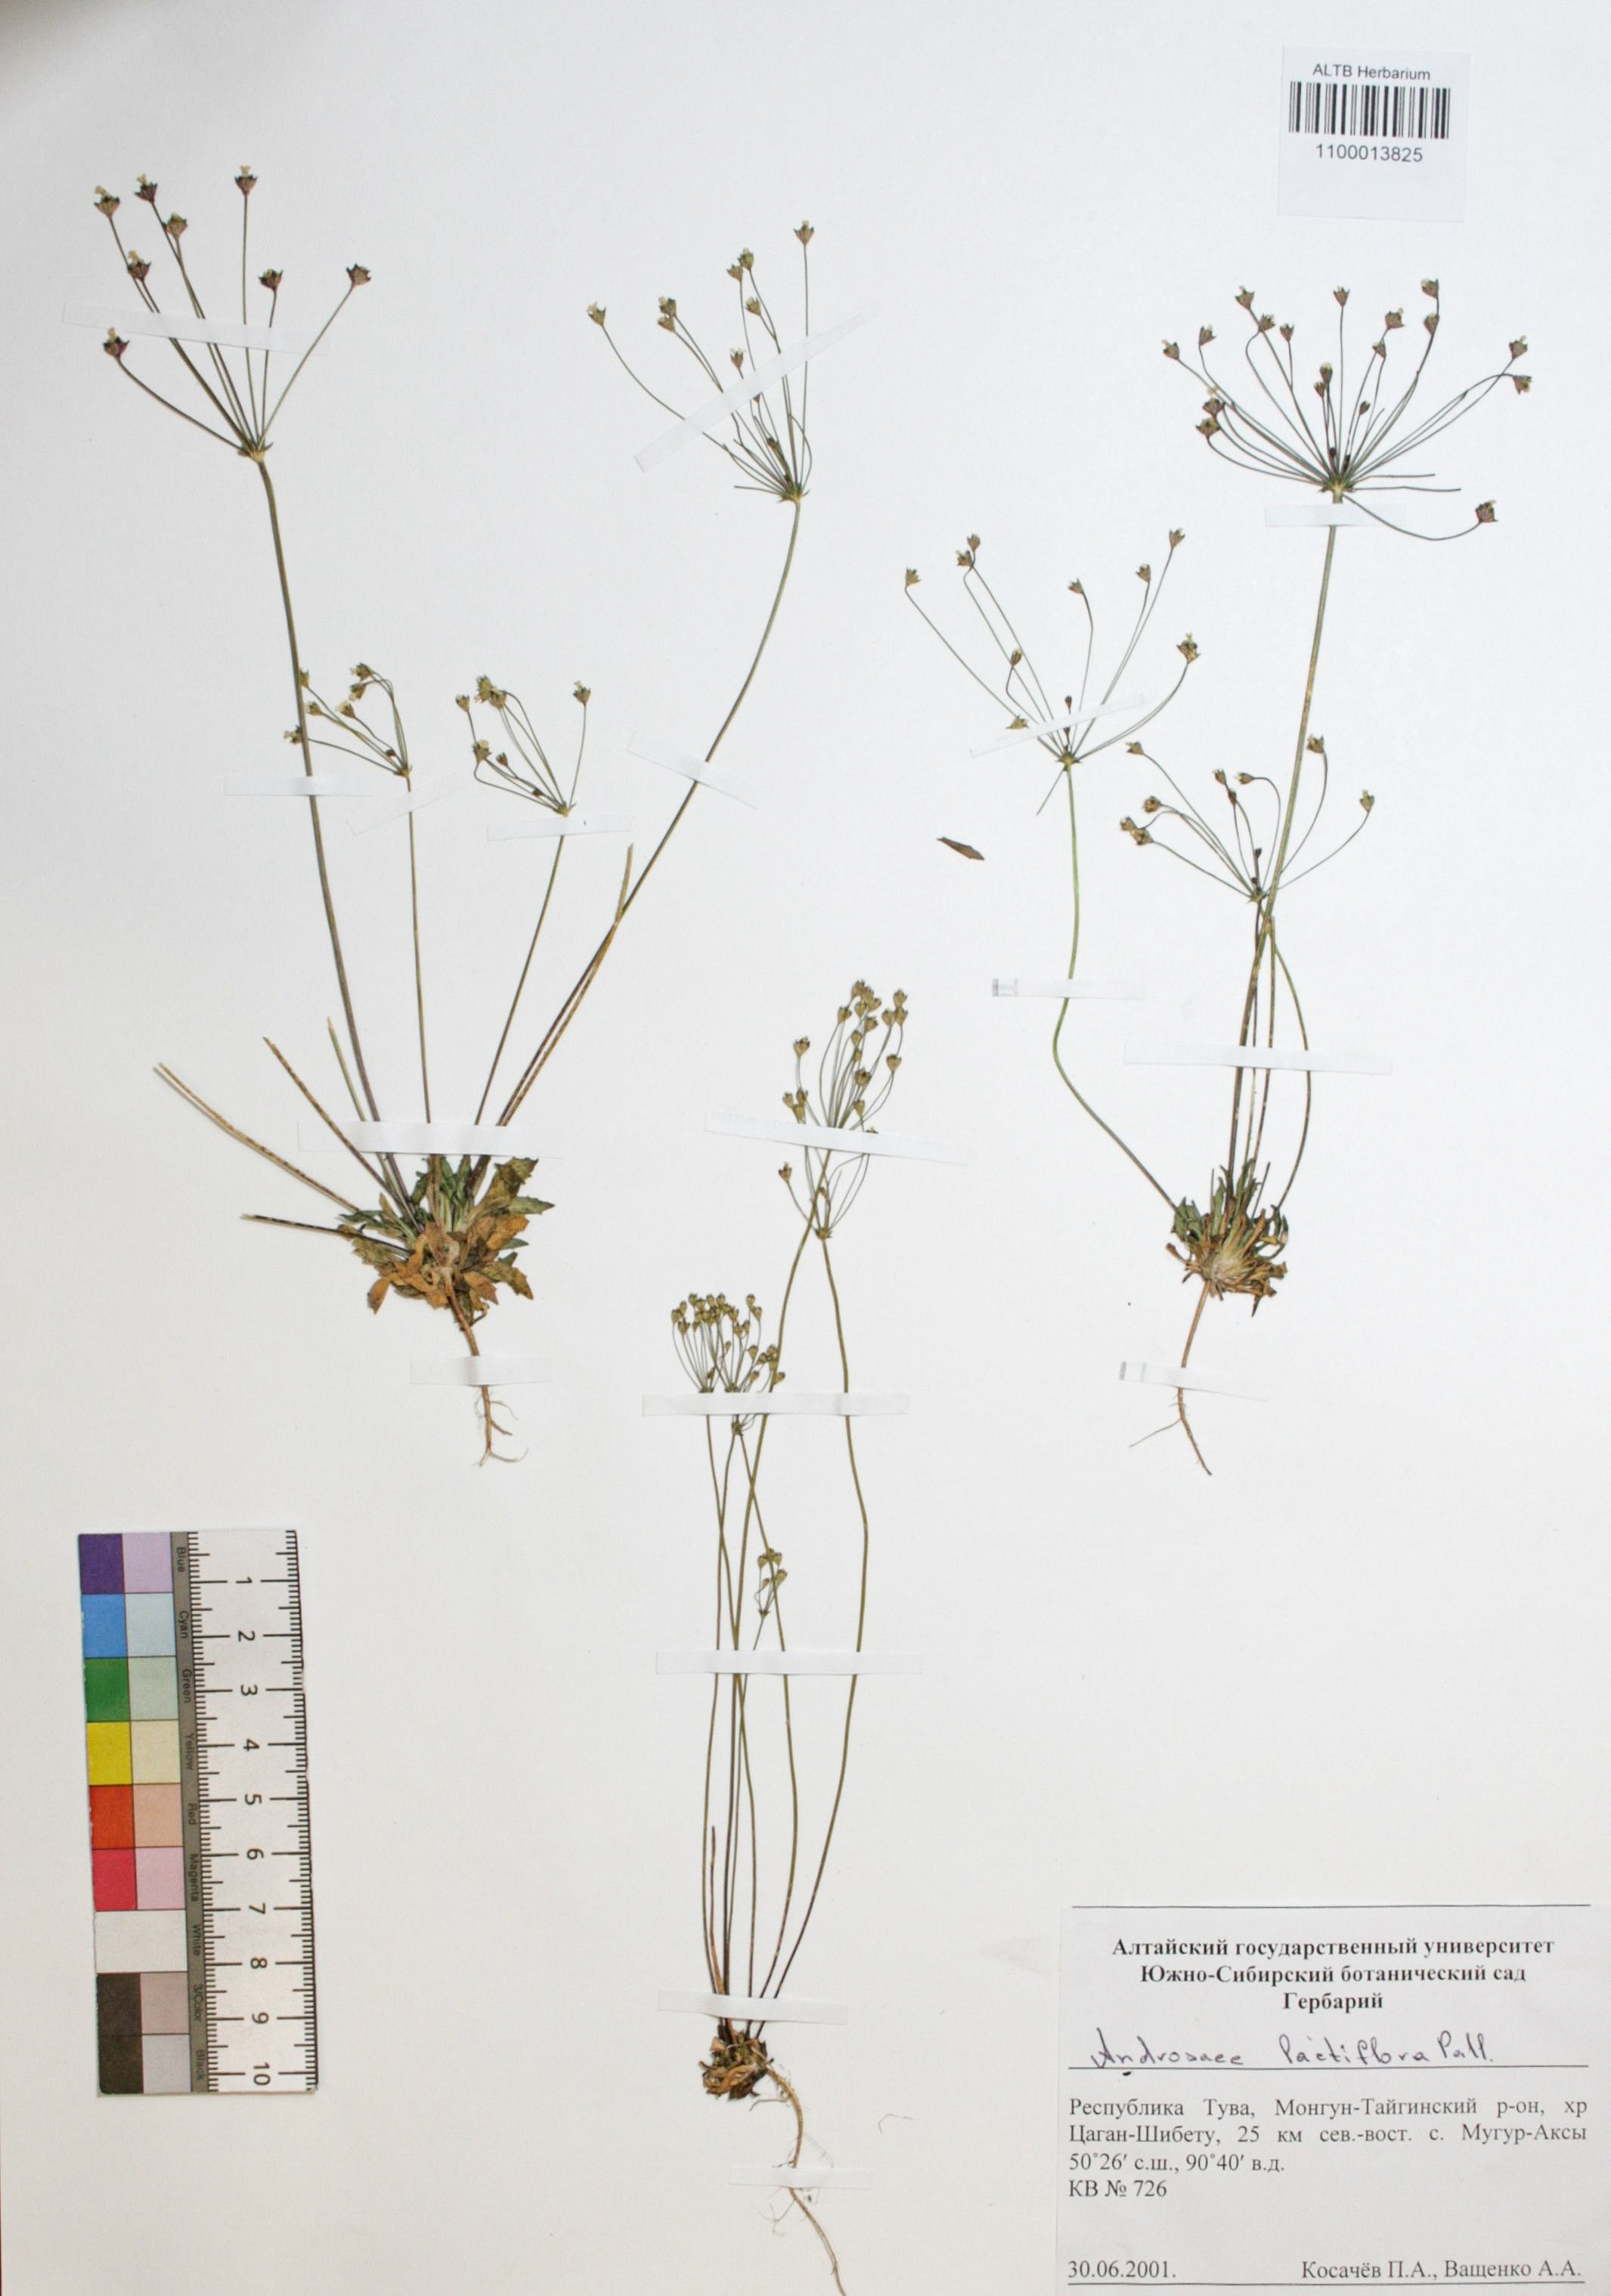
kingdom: Plantae
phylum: Tracheophyta
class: Magnoliopsida
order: Ericales
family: Primulaceae
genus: Androsace
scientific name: Androsace lactiflora
